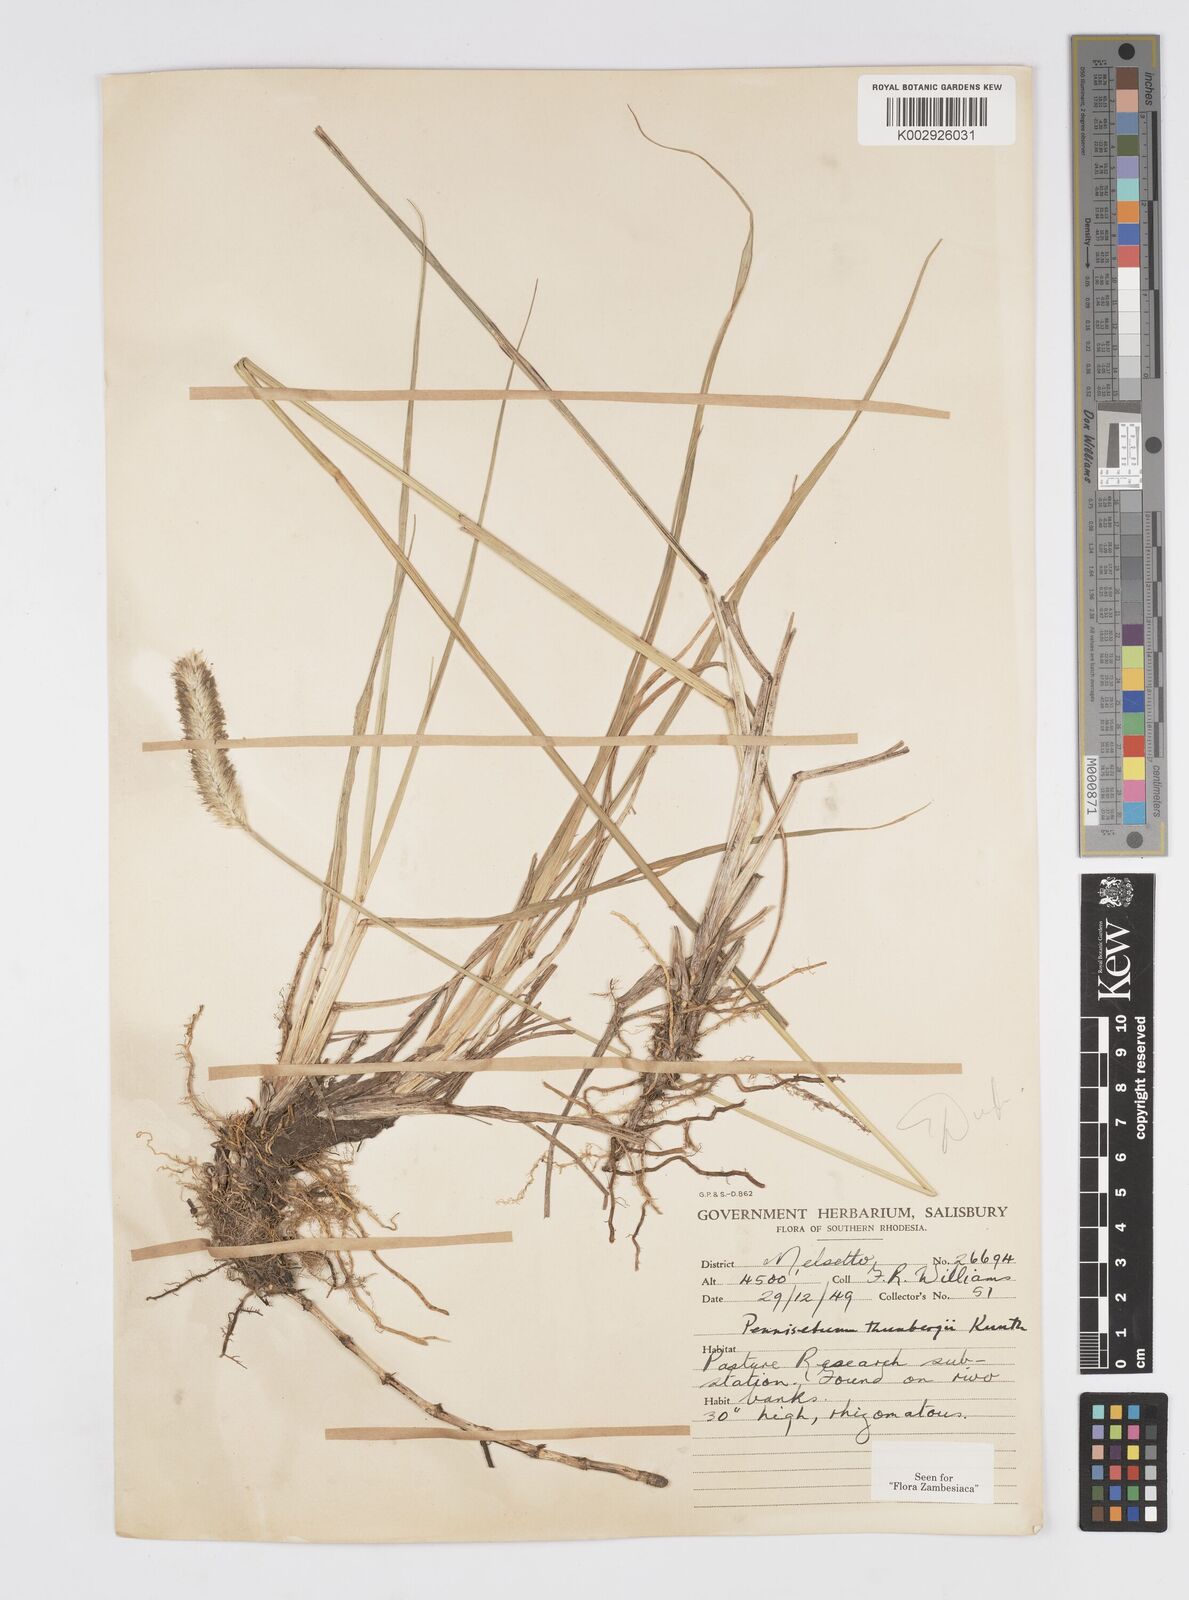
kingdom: Plantae
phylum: Tracheophyta
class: Liliopsida
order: Poales
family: Poaceae
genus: Cenchrus
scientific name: Cenchrus geniculatus
